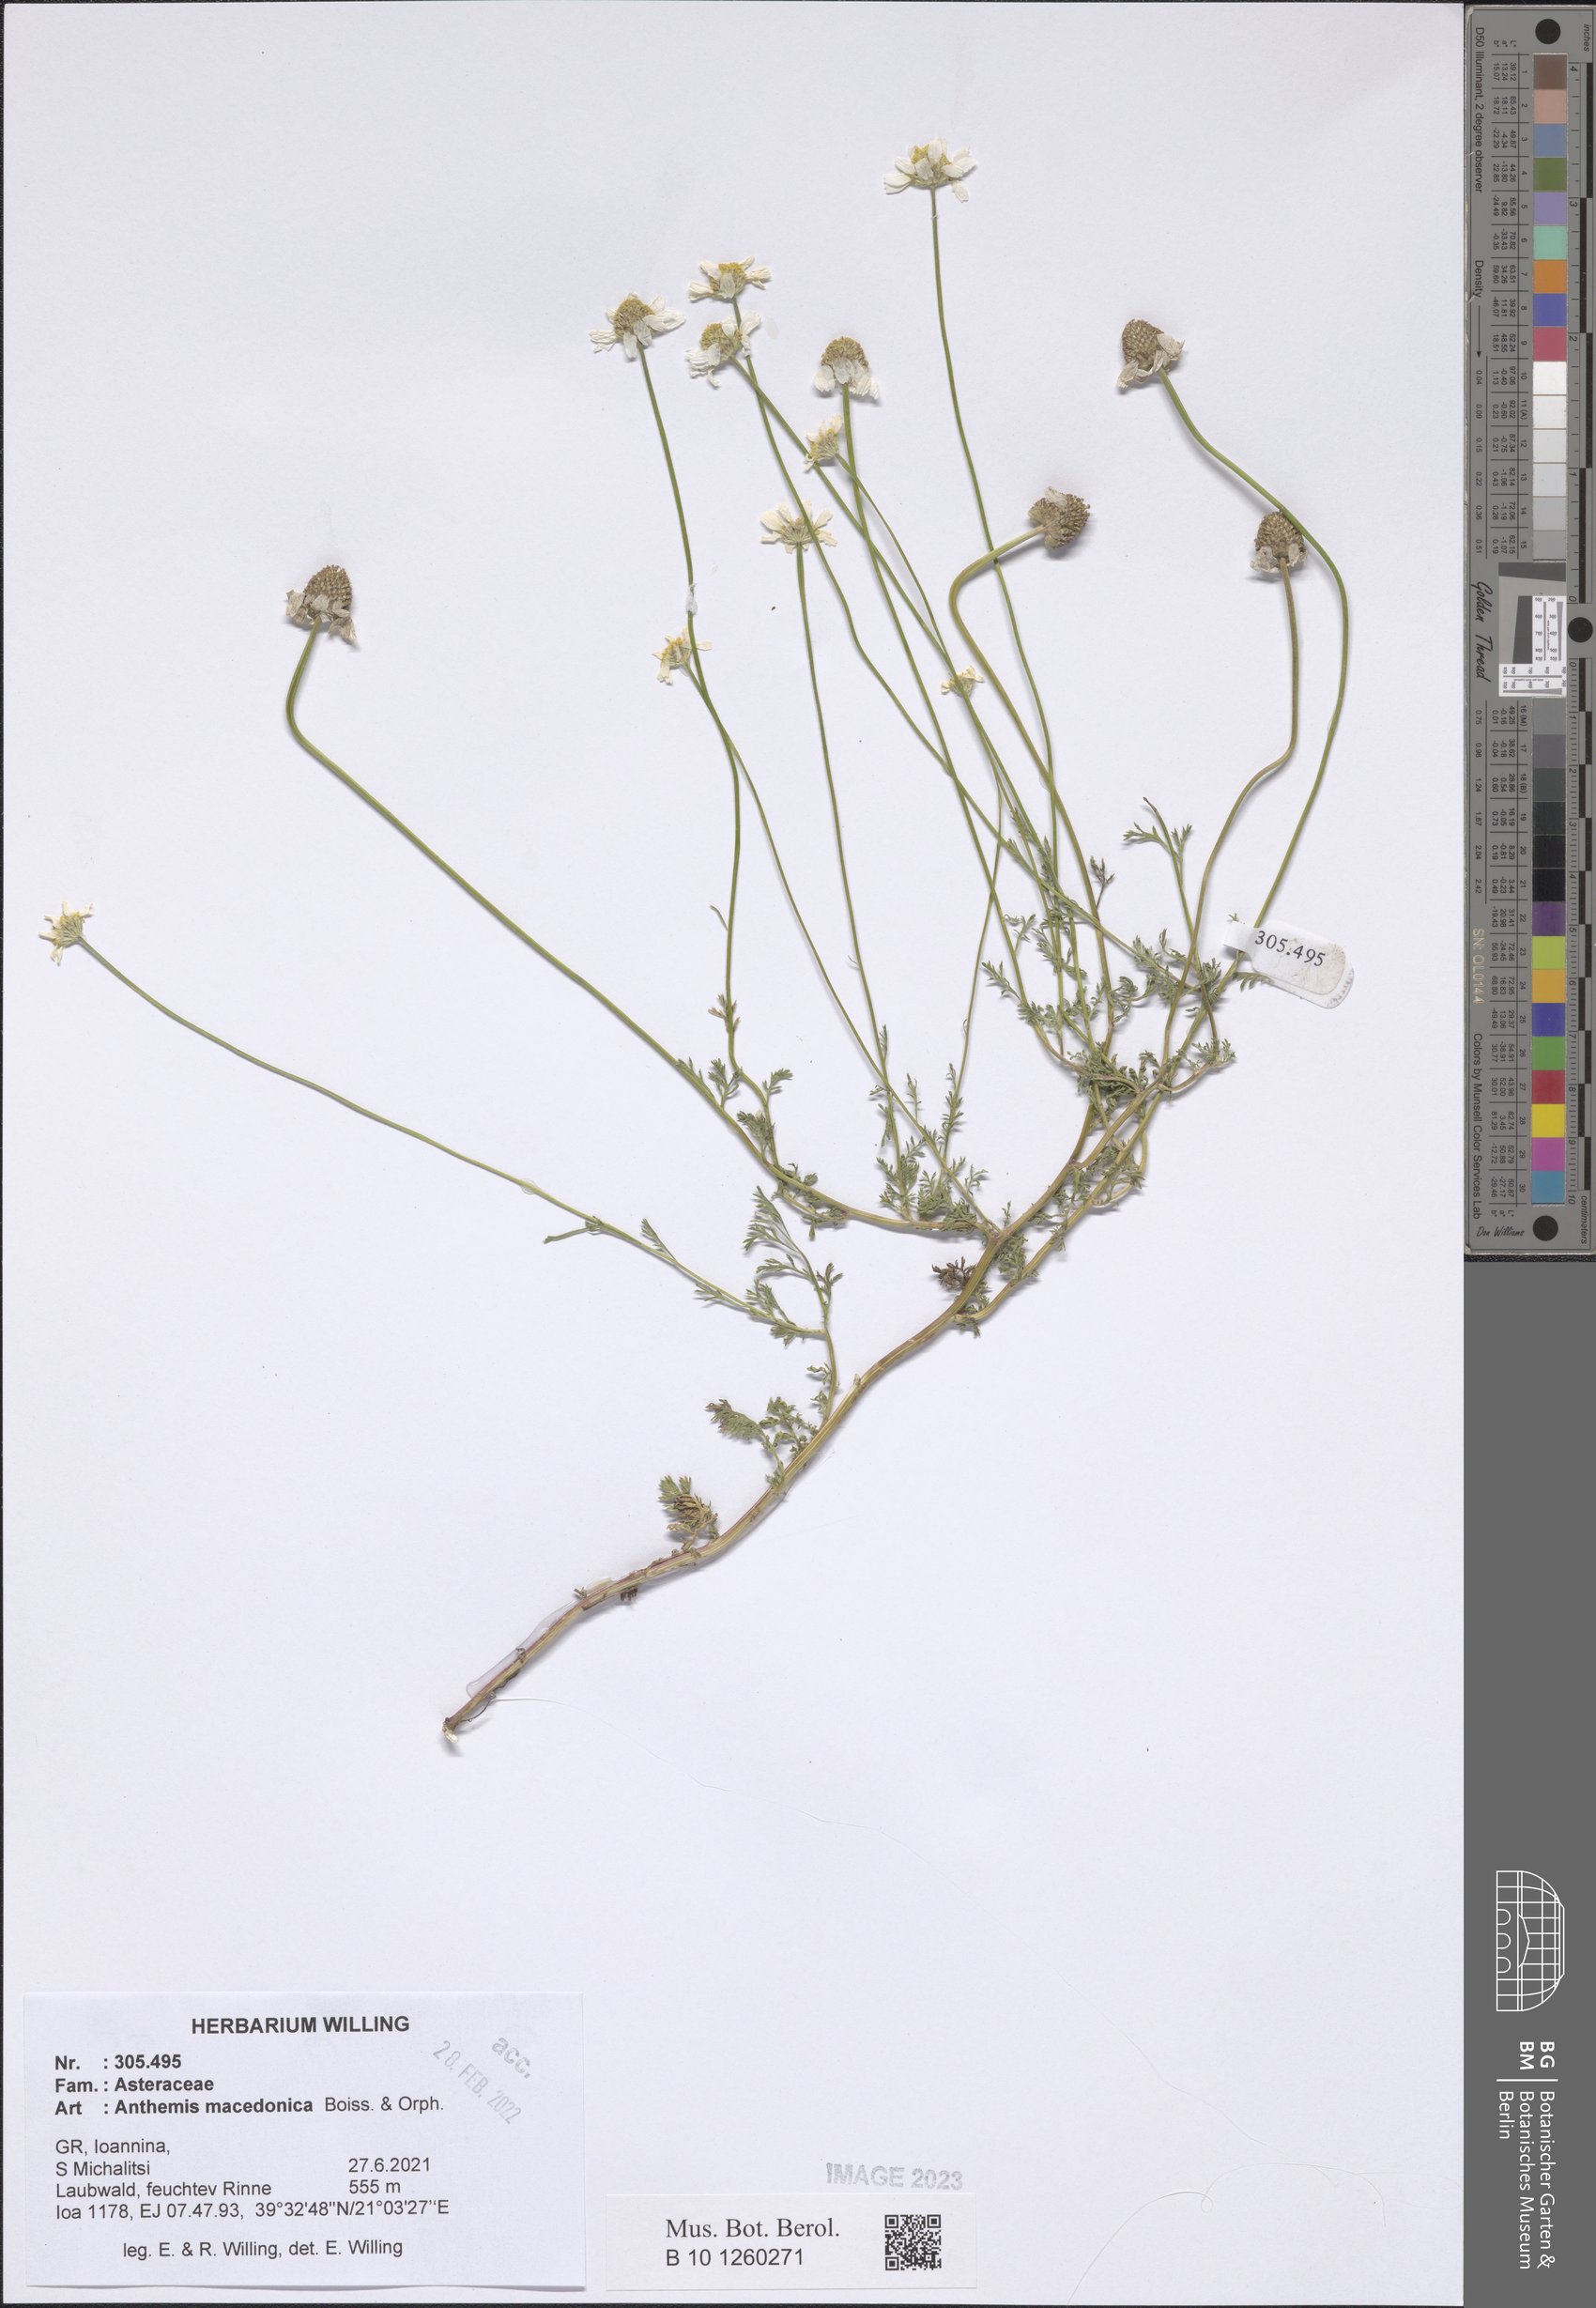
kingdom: Plantae
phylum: Tracheophyta
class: Magnoliopsida
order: Asterales
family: Asteraceae
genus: Anthemis
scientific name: Anthemis macedonica
